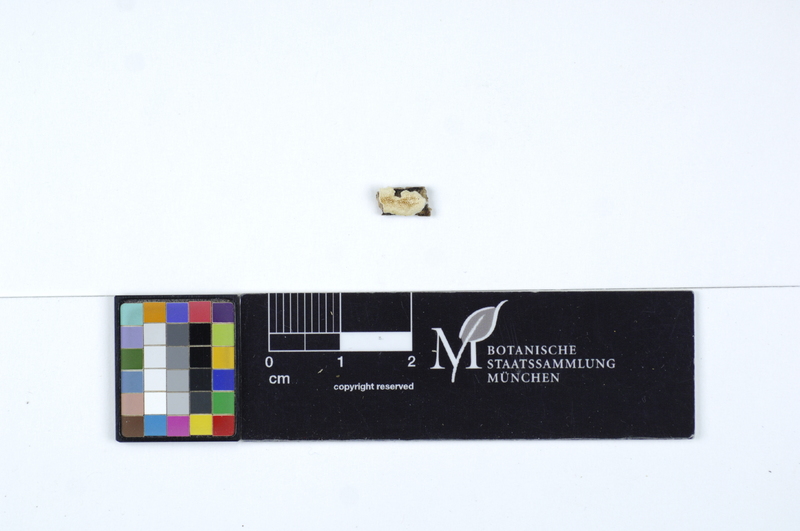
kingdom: Fungi
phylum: Basidiomycota
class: Agaricomycetes
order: Polyporales
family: Steccherinaceae
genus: Antrodiella
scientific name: Antrodiella romellii
